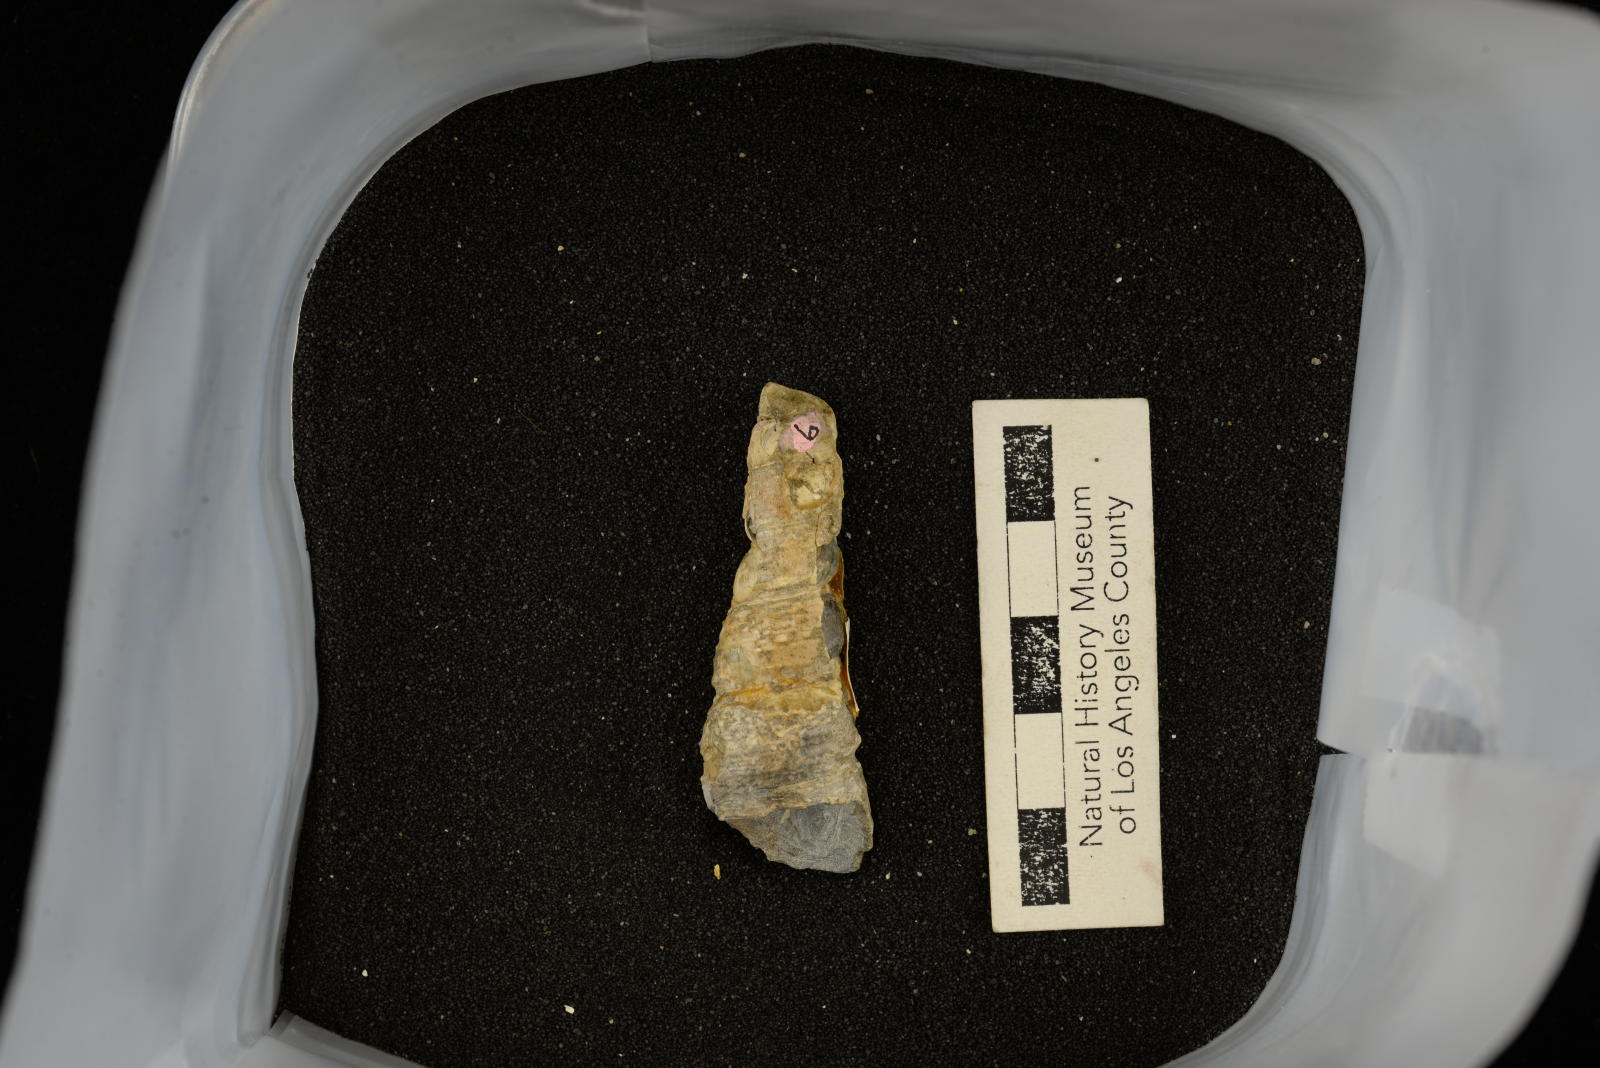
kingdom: Animalia
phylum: Mollusca
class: Gastropoda
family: Turritellidae
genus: Turritella
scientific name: Turritella chicoensis
